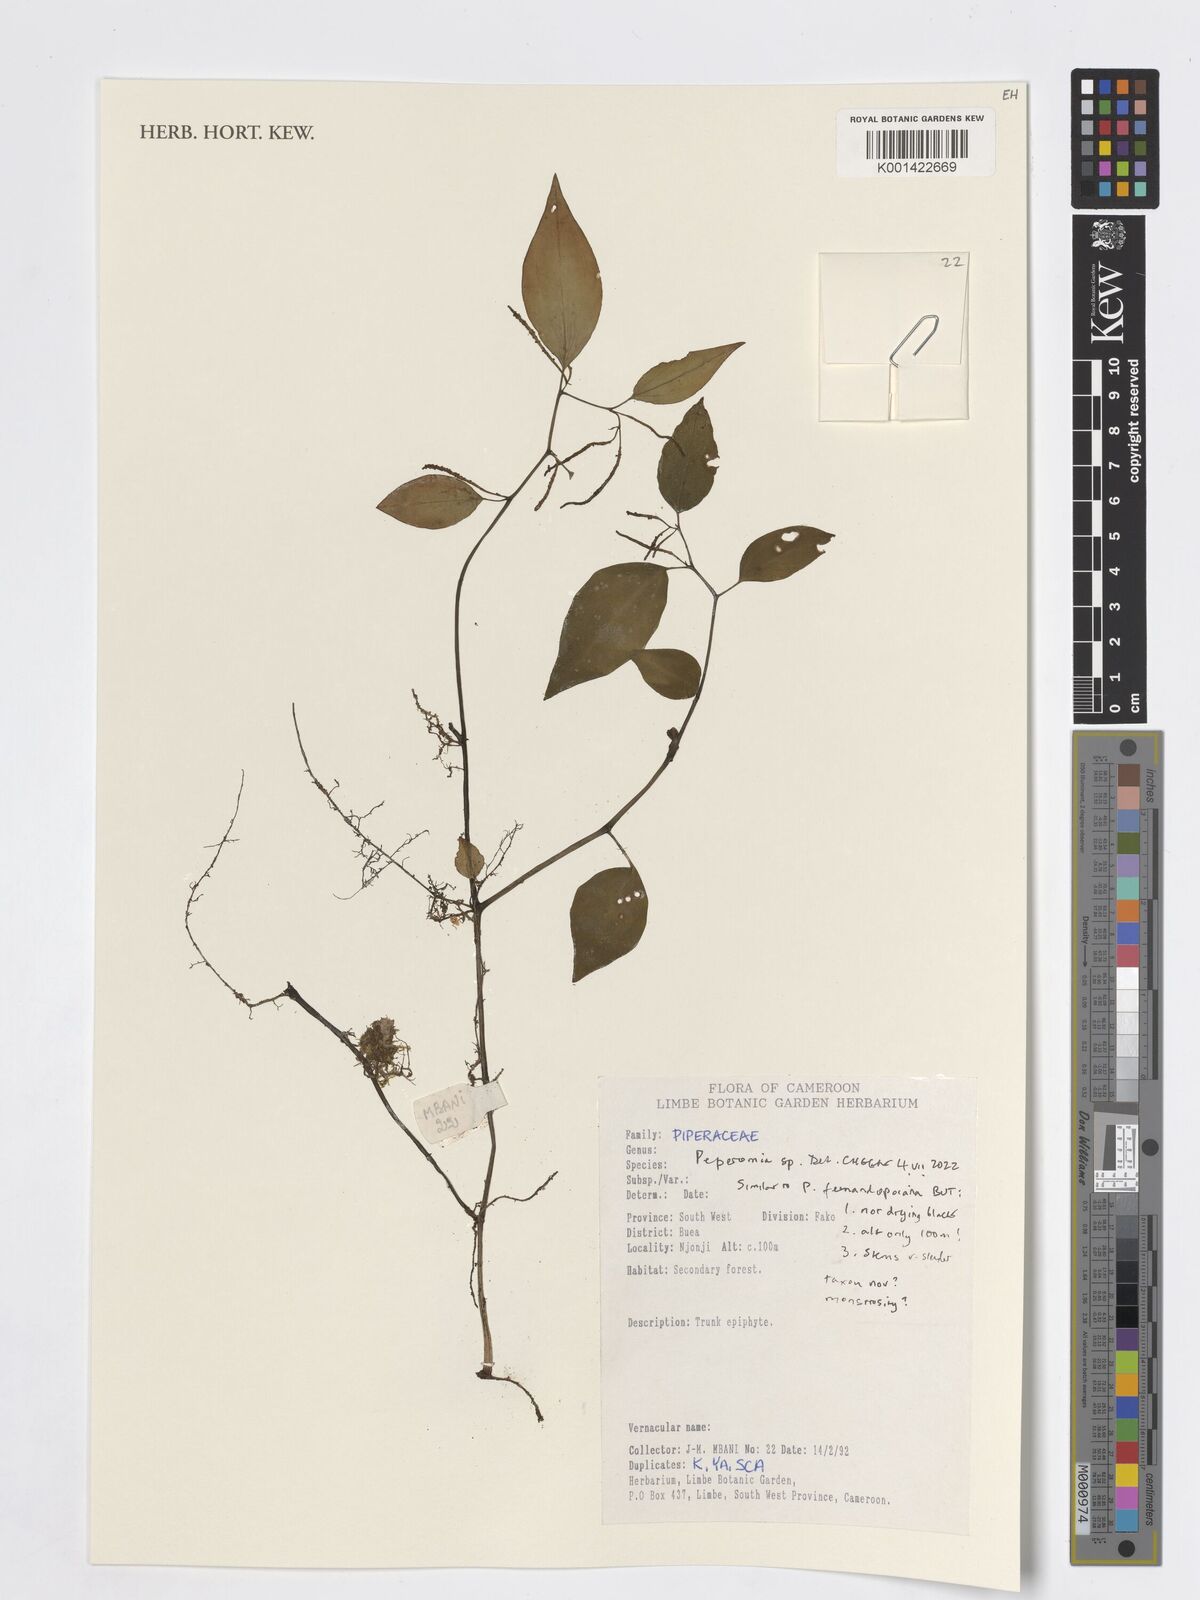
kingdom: Plantae
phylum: Tracheophyta
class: Magnoliopsida
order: Piperales
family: Piperaceae
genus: Peperomia
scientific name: Peperomia
